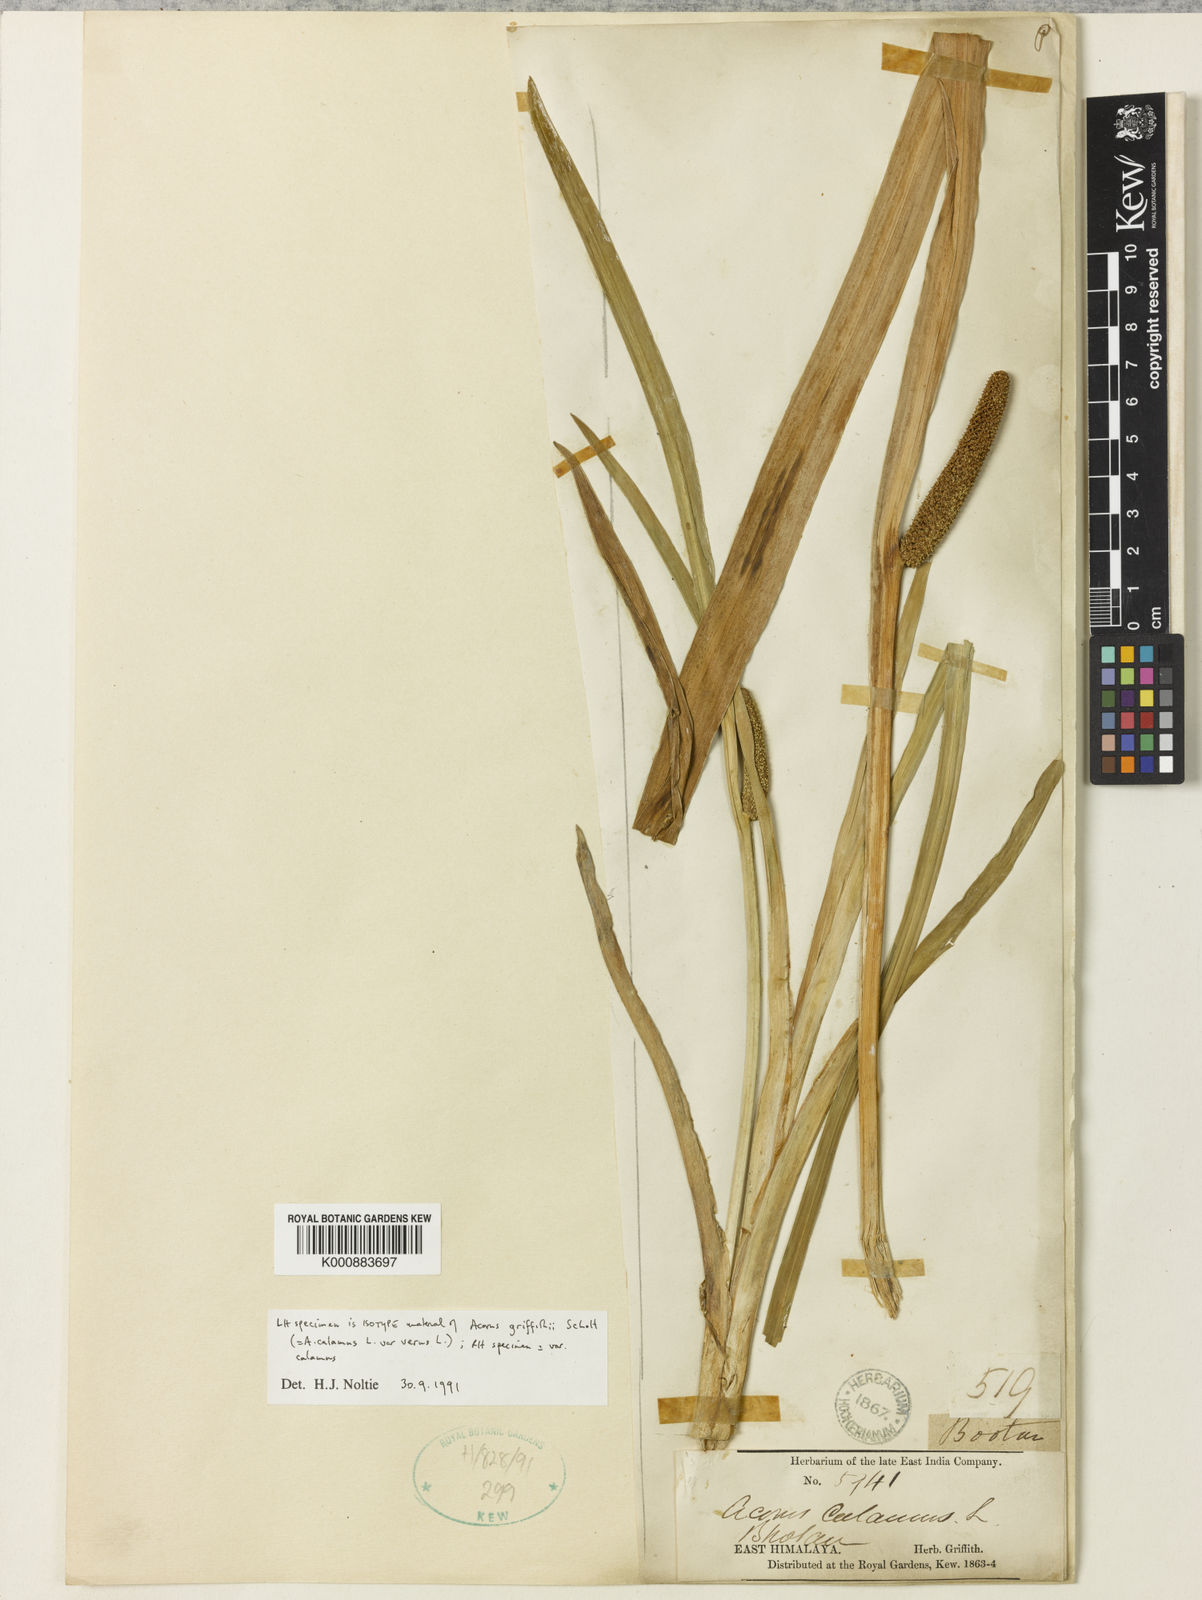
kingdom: Plantae
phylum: Tracheophyta
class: Liliopsida
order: Acorales
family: Acoraceae
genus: Acorus
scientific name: Acorus calamus
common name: Sweet-flag
